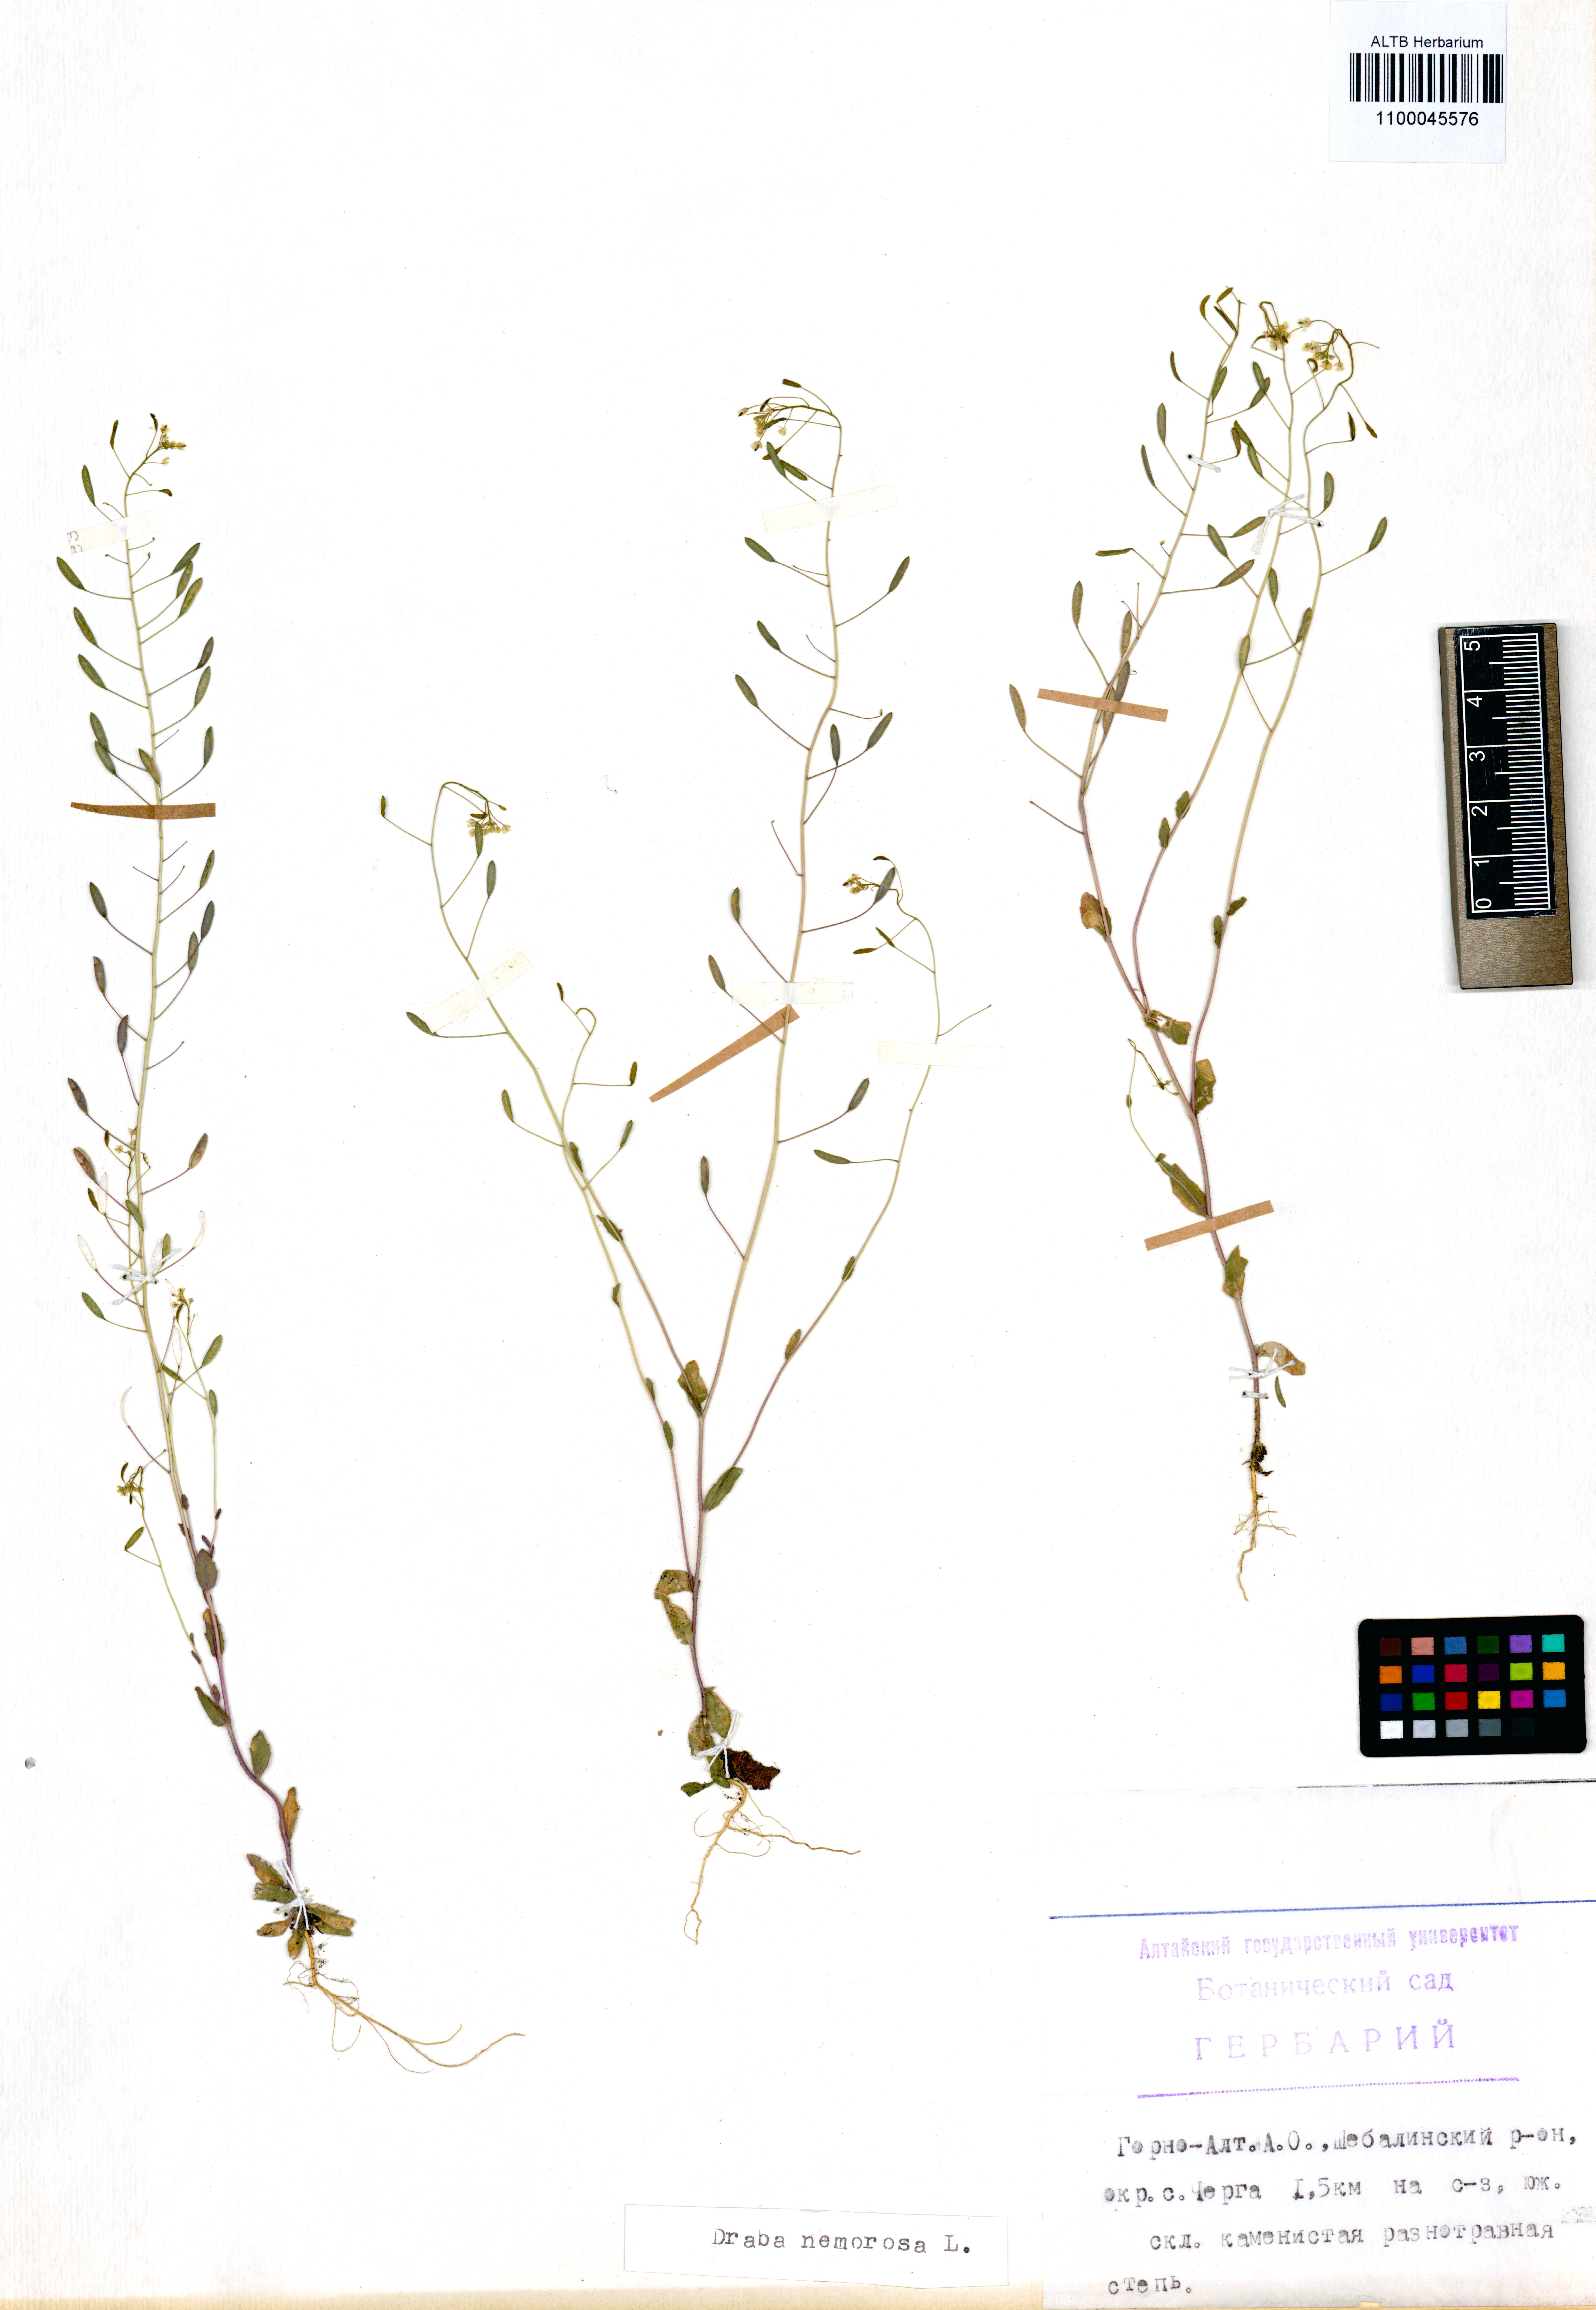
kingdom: Plantae
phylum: Tracheophyta
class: Magnoliopsida
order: Brassicales
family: Brassicaceae
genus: Draba
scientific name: Draba nemorosa
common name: Wood whitlow-grass
